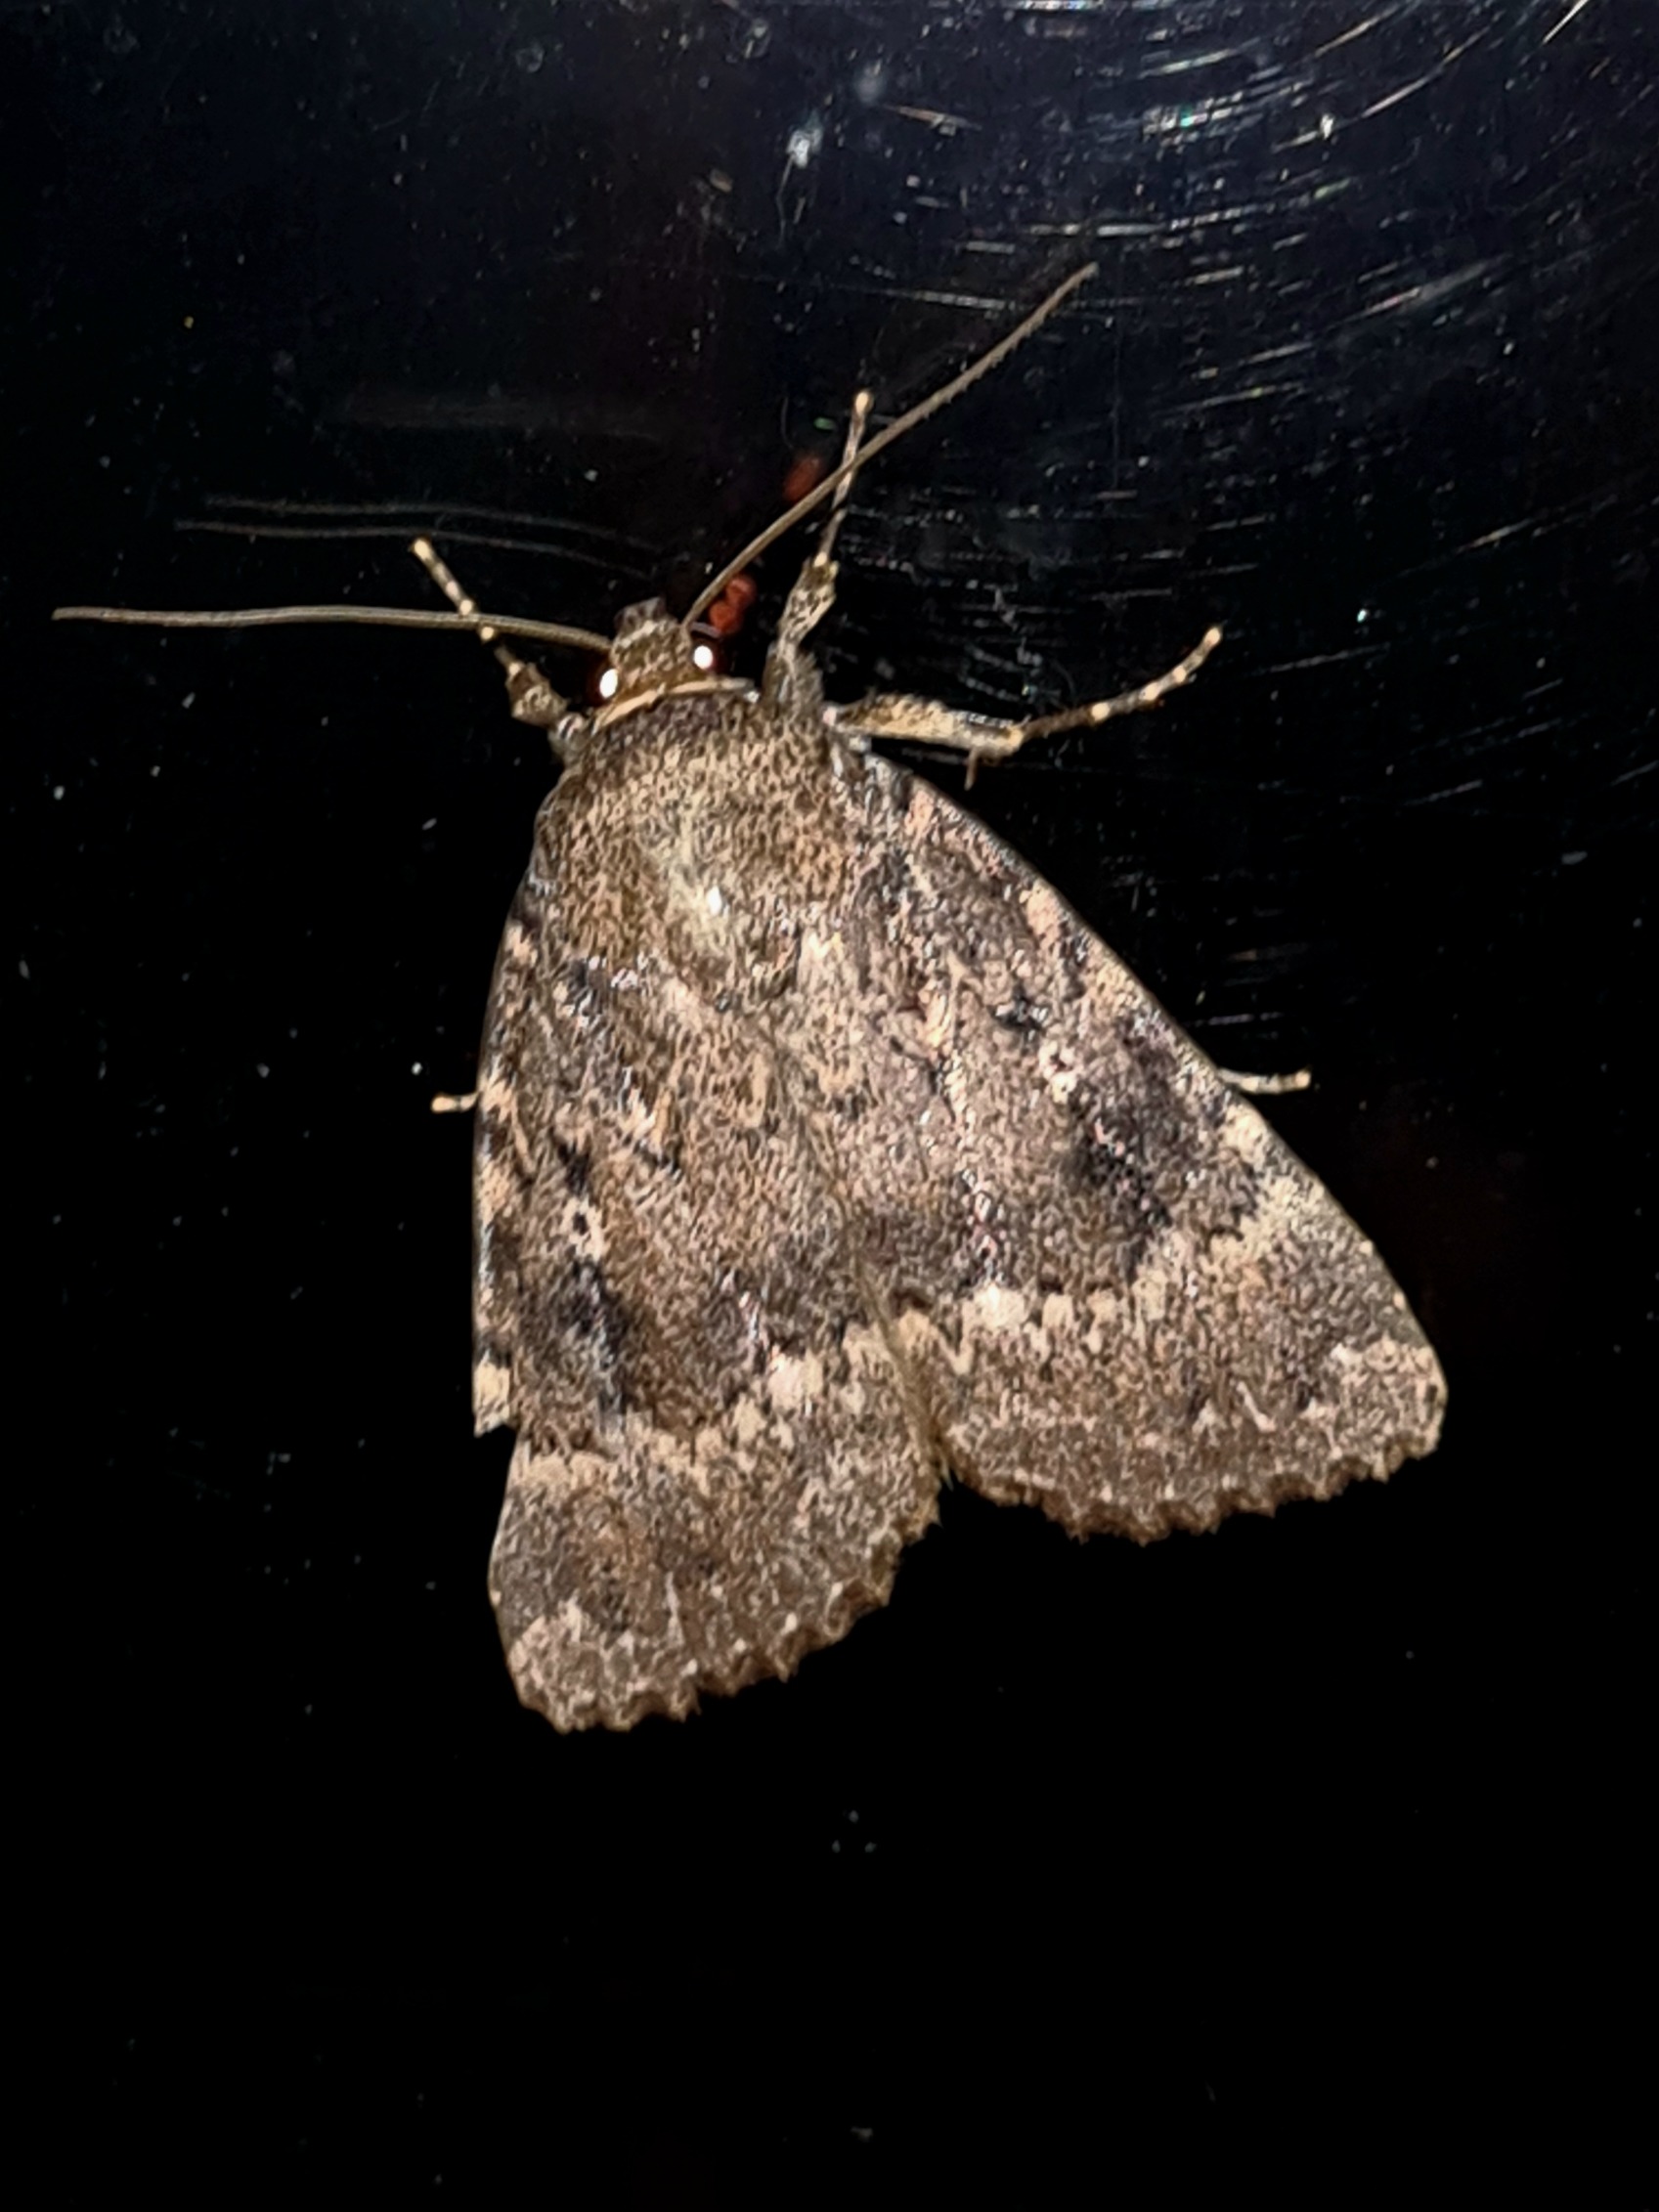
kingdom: Animalia
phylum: Arthropoda
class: Insecta
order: Lepidoptera
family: Noctuidae
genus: Amphipyra
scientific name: Amphipyra pyramidea
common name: Pyramideugle
